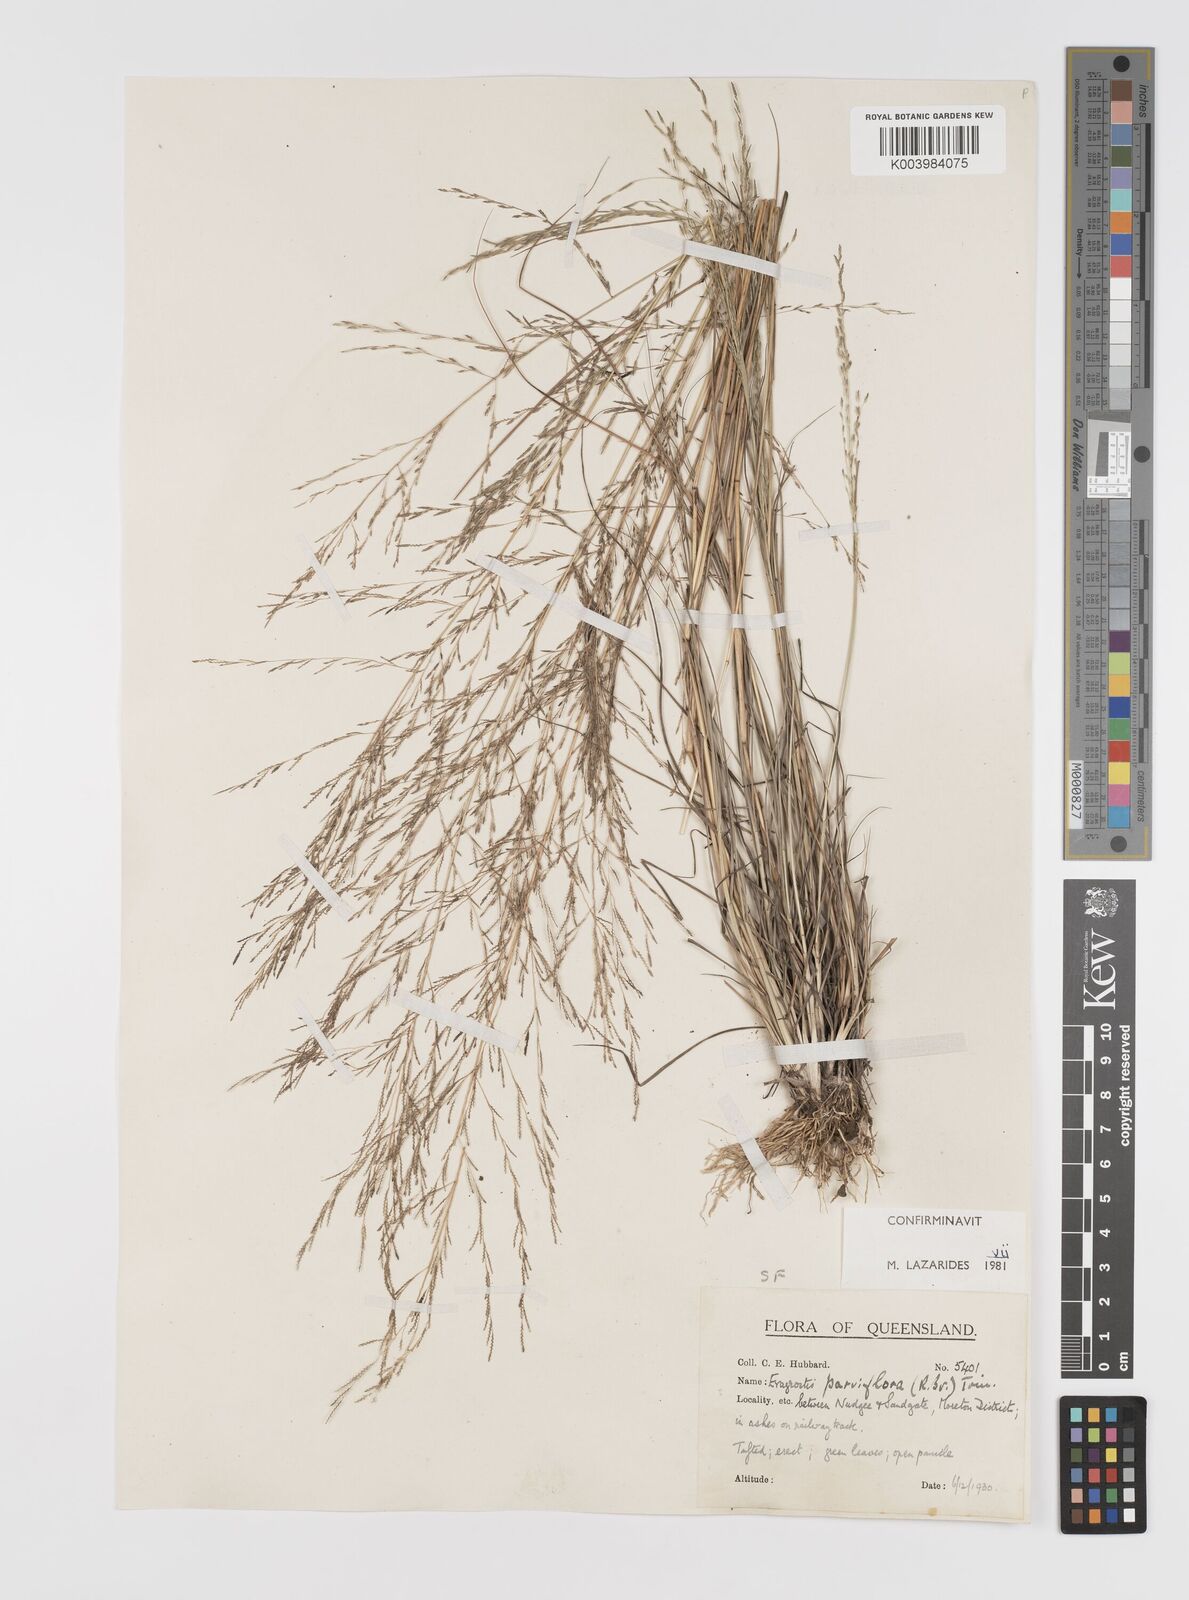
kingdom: Plantae
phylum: Tracheophyta
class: Liliopsida
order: Poales
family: Poaceae
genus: Eragrostis
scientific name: Eragrostis parviflora
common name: Weeping love-grass
